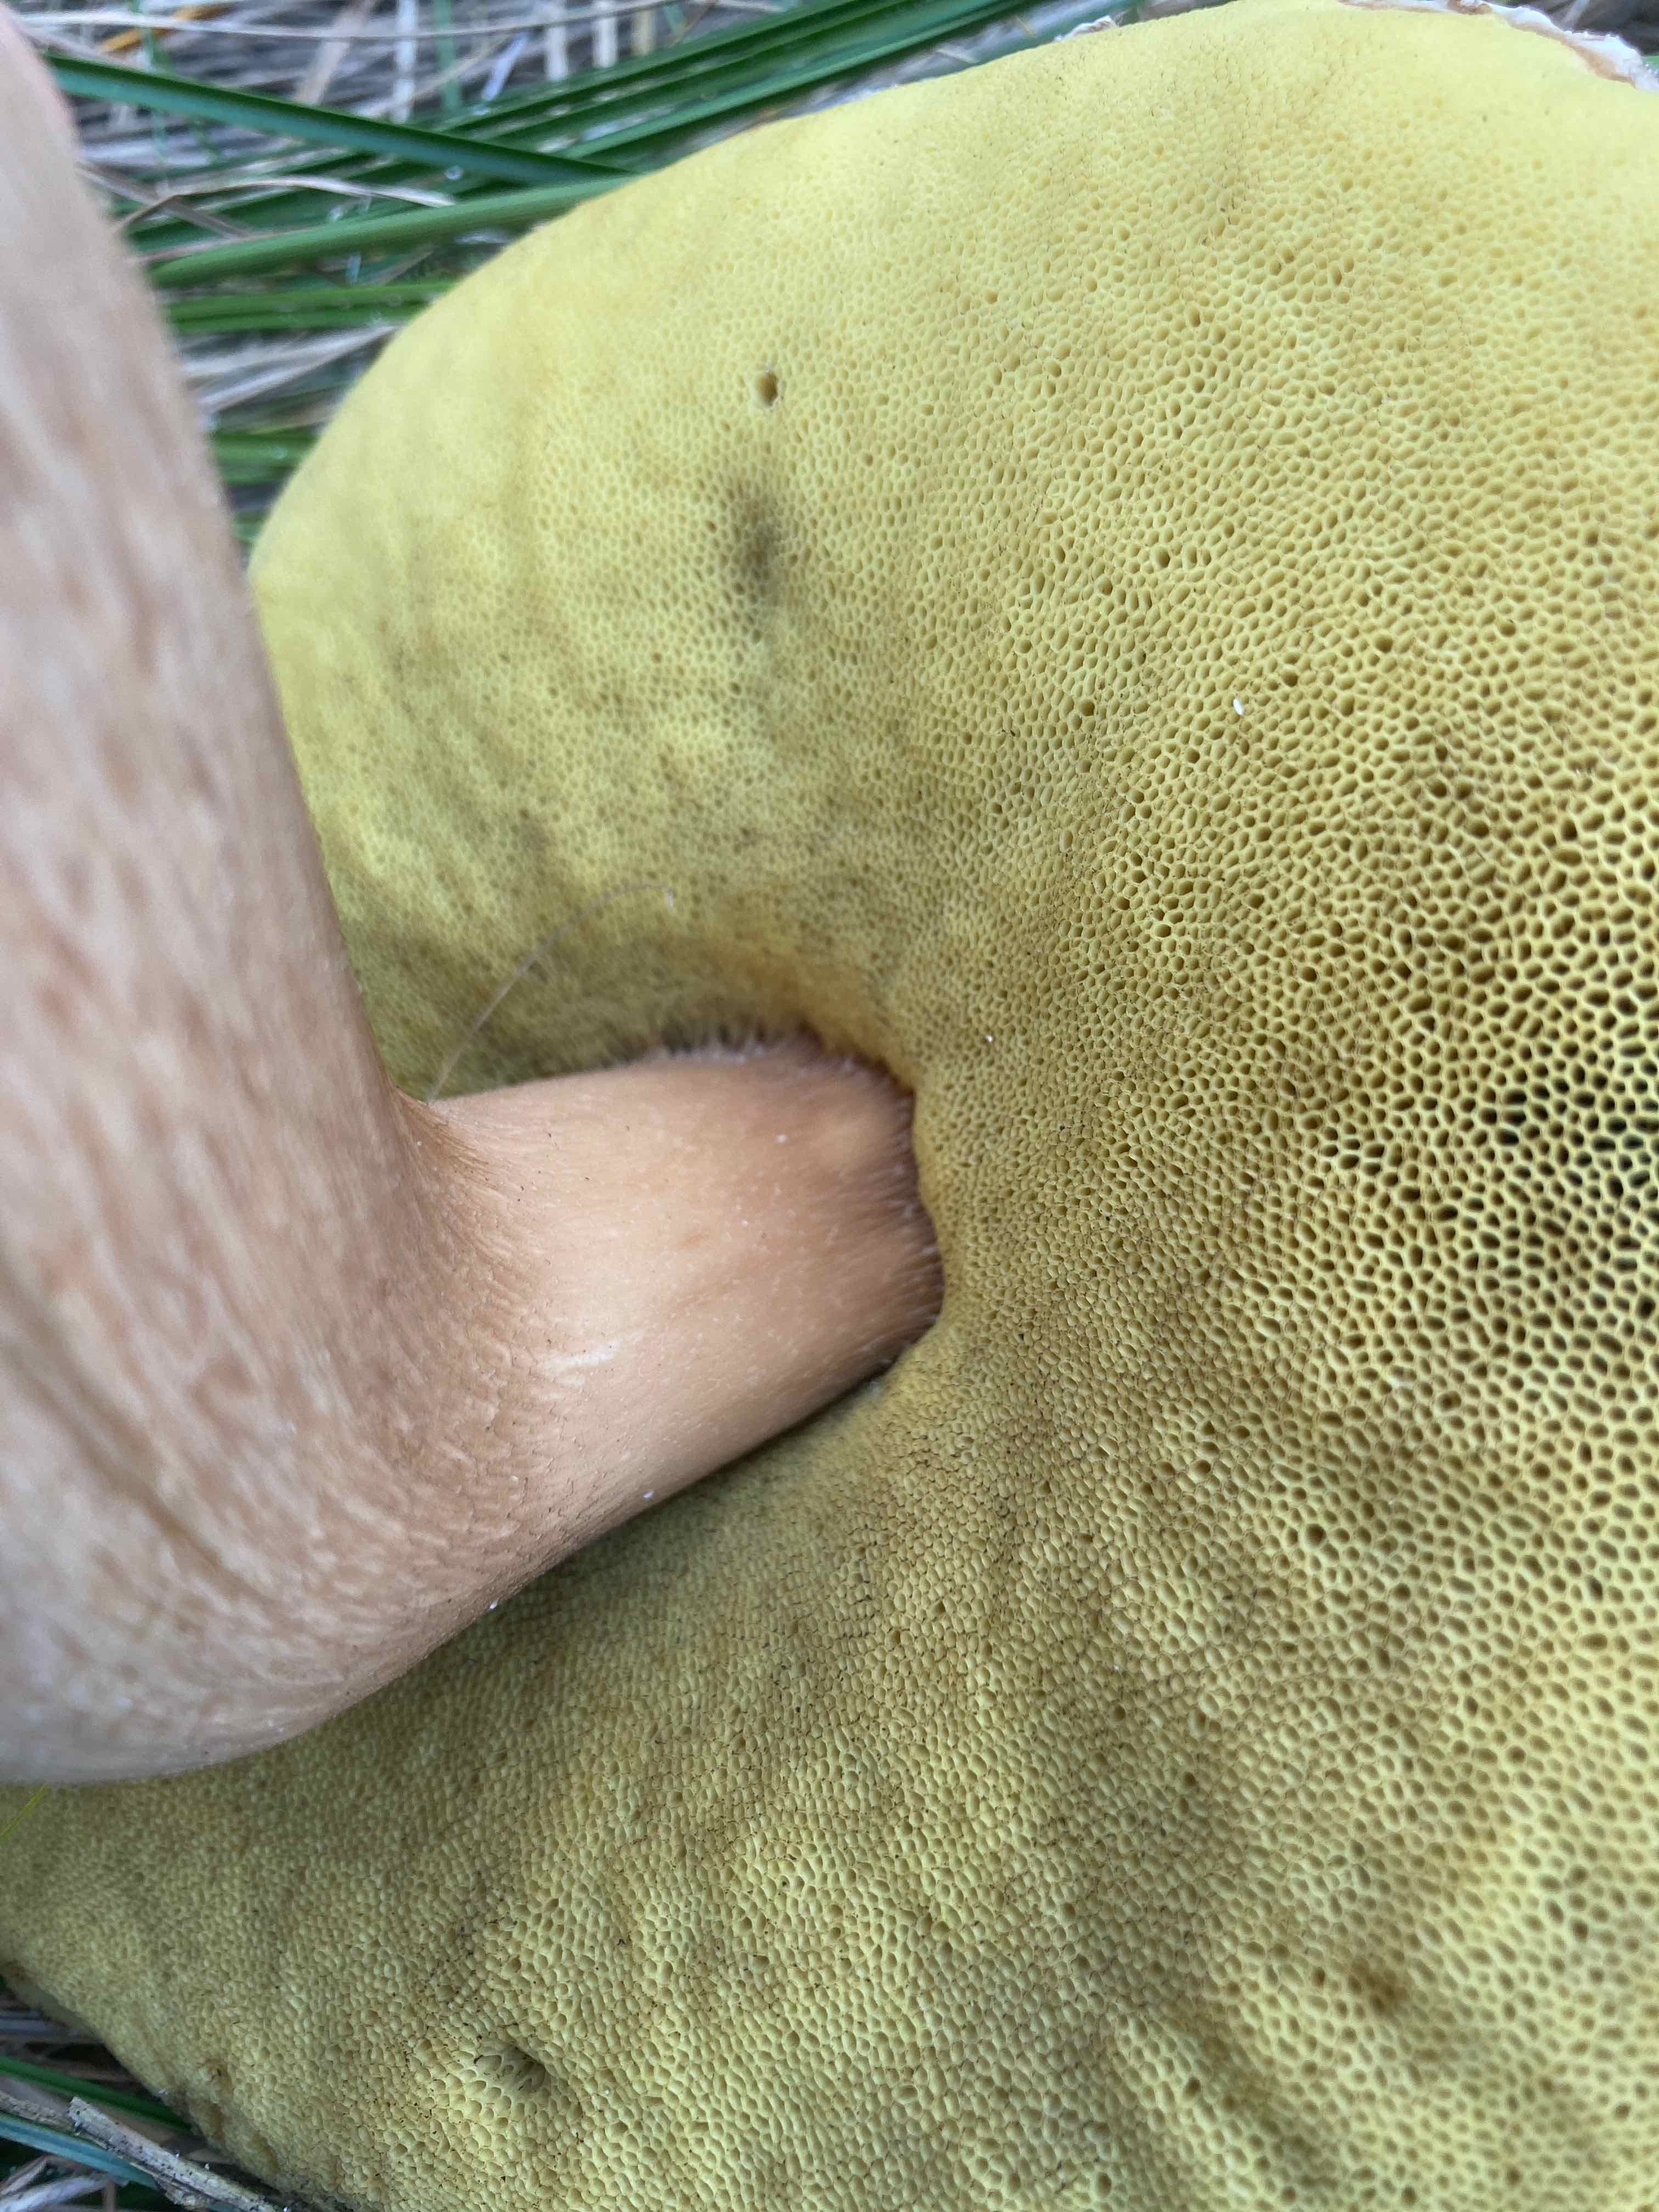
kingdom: Fungi
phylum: Basidiomycota
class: Agaricomycetes
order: Boletales
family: Boletaceae
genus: Boletus
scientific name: Boletus edulis
